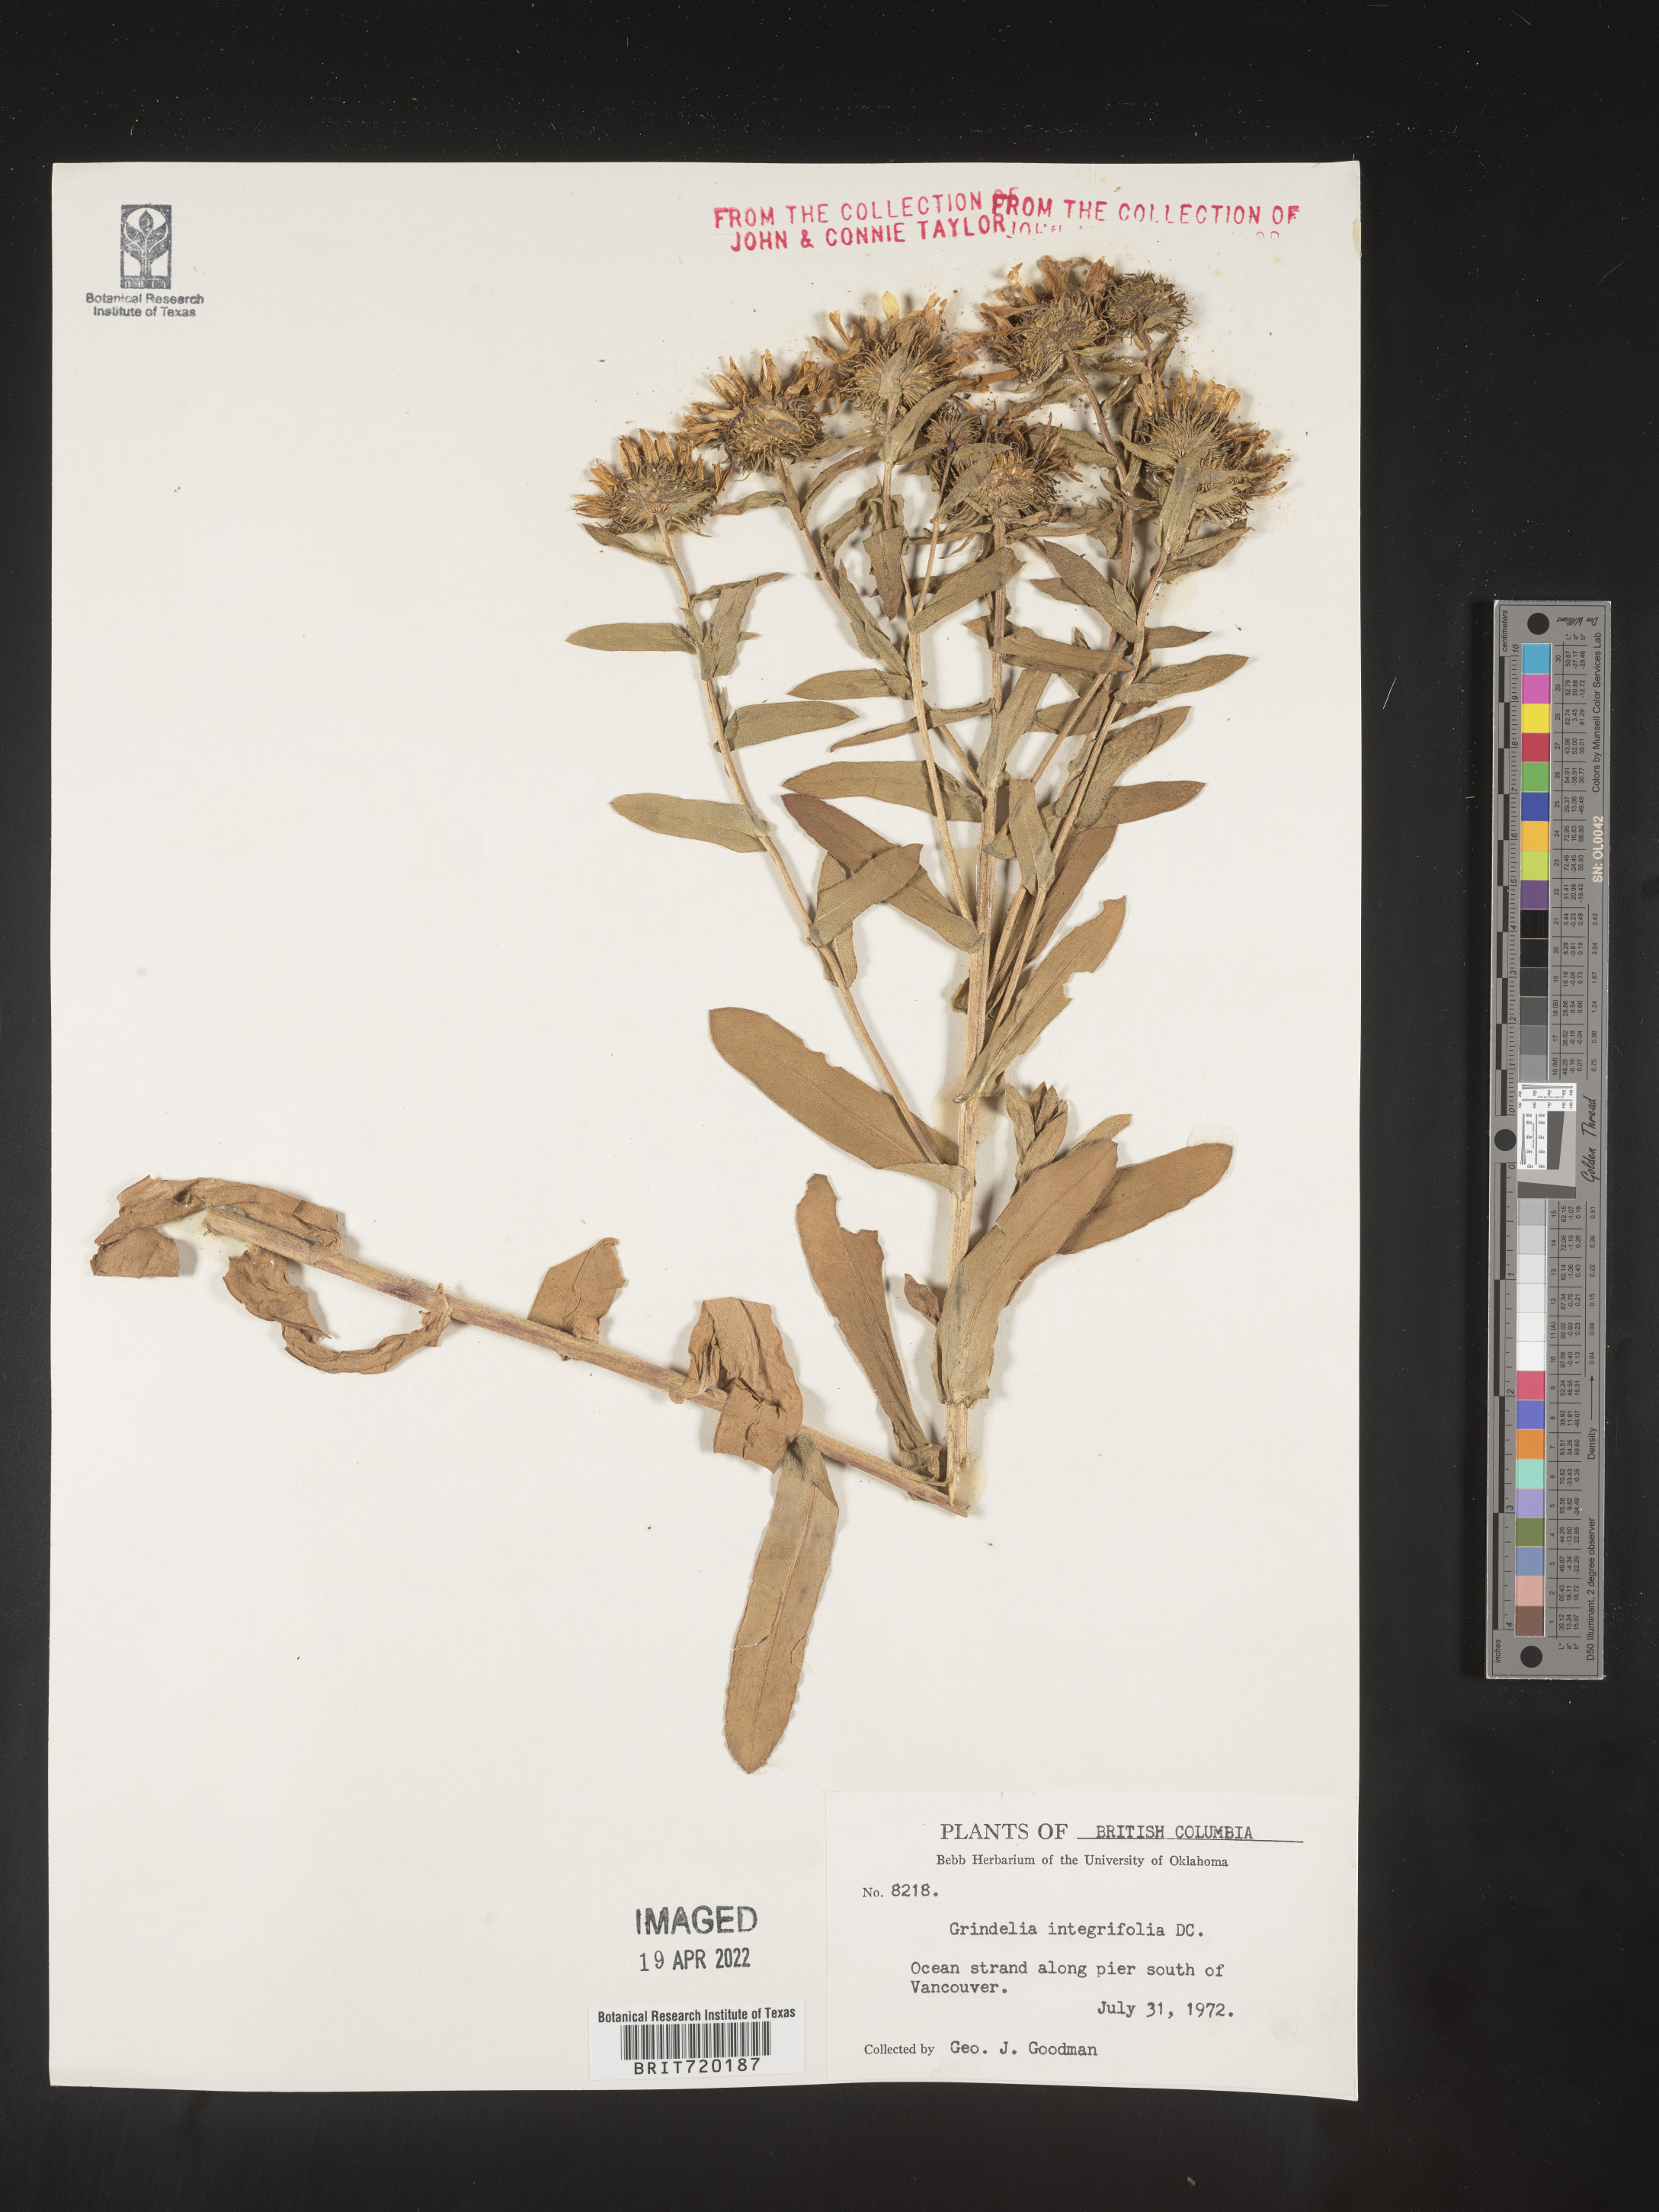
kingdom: Plantae
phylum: Tracheophyta
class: Magnoliopsida
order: Asterales
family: Asteraceae
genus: Grindelia
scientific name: Grindelia integrifolia
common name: Puget sound gumweed
